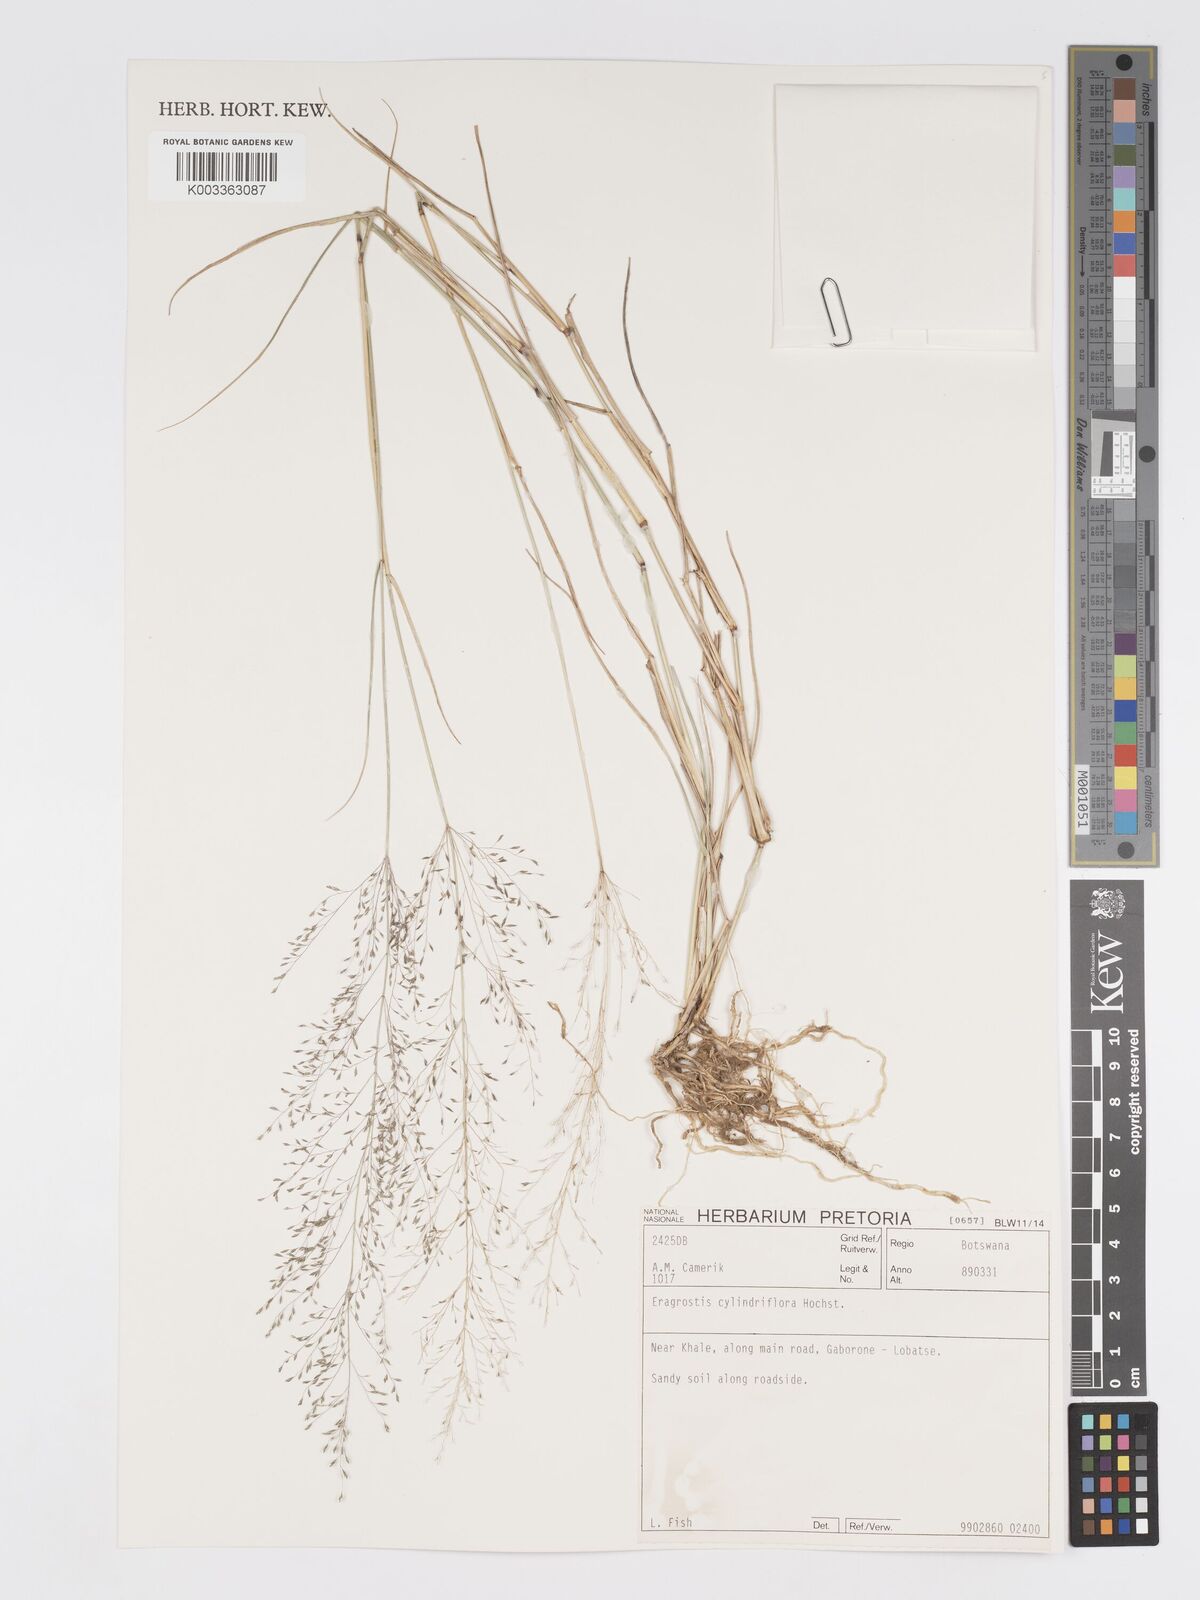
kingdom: Plantae
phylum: Tracheophyta
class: Liliopsida
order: Poales
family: Poaceae
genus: Eragrostis
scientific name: Eragrostis cylindriflora
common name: Cylinderflower lovegrass
